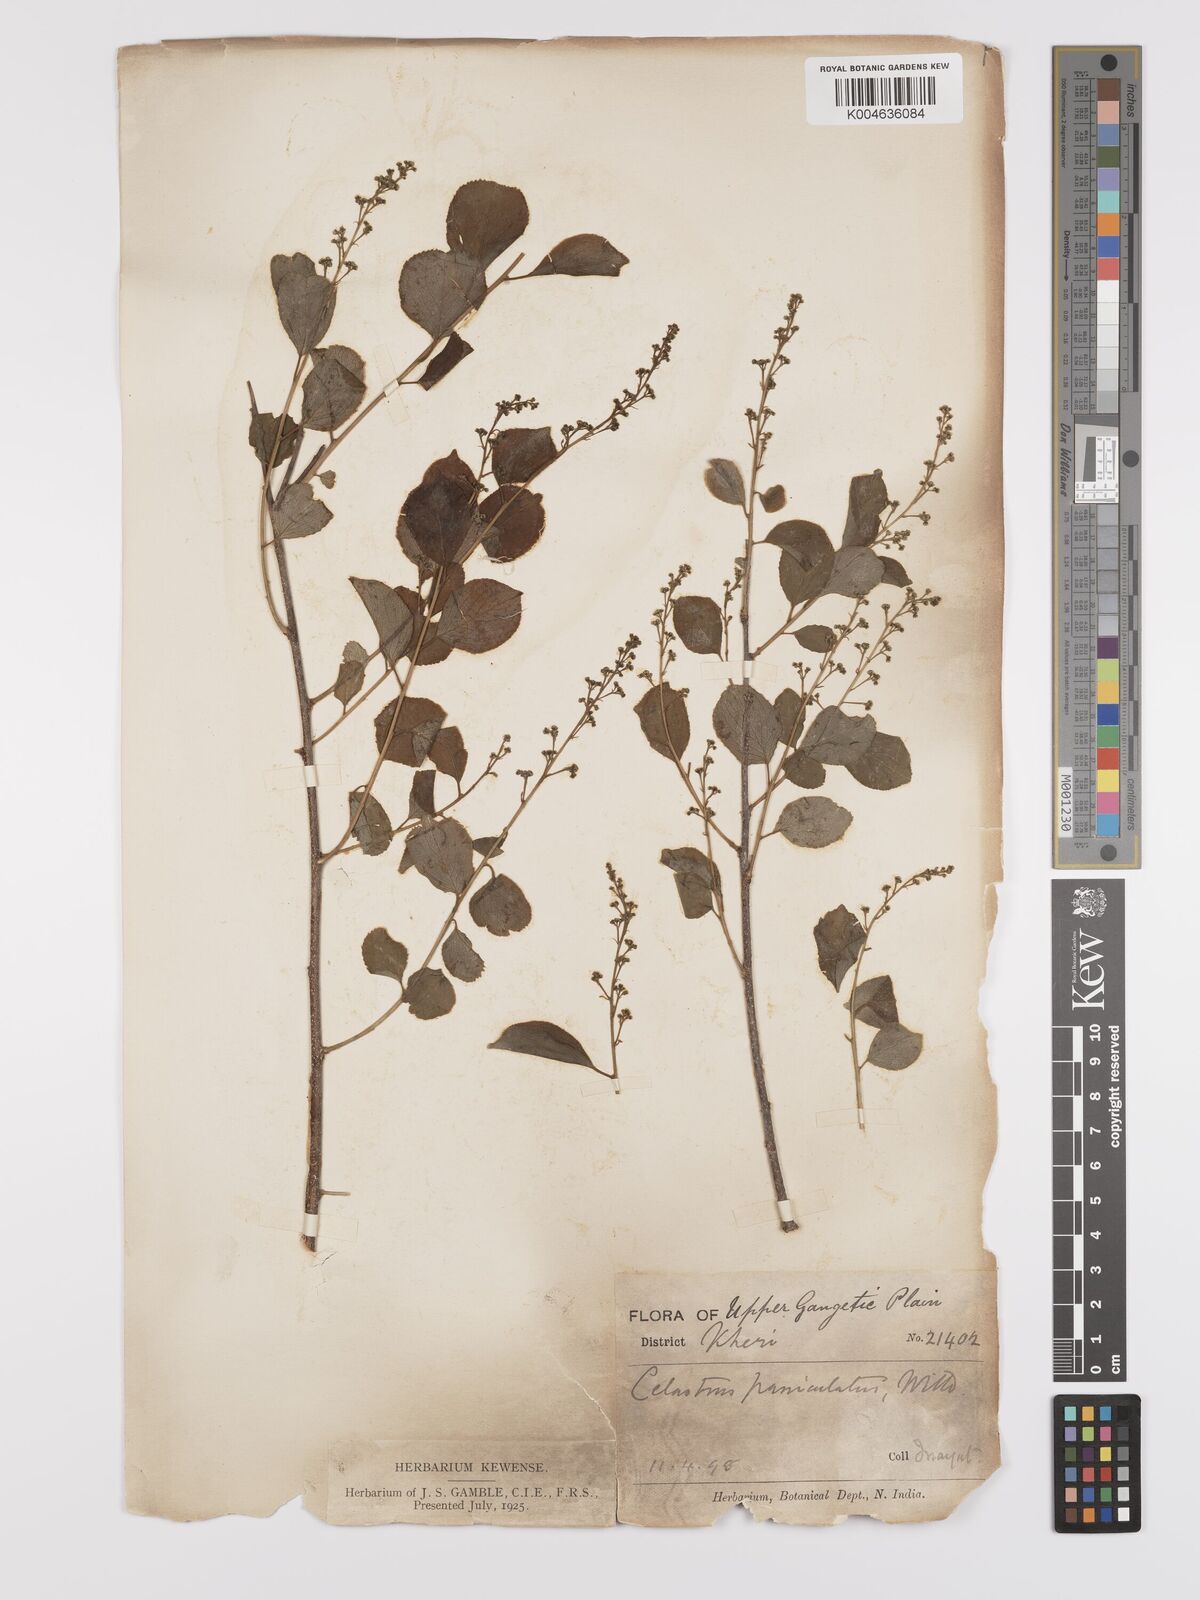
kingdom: Plantae
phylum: Tracheophyta
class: Magnoliopsida
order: Celastrales
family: Celastraceae
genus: Celastrus
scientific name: Celastrus paniculatus
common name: Oriental bittersweet; staff vine
